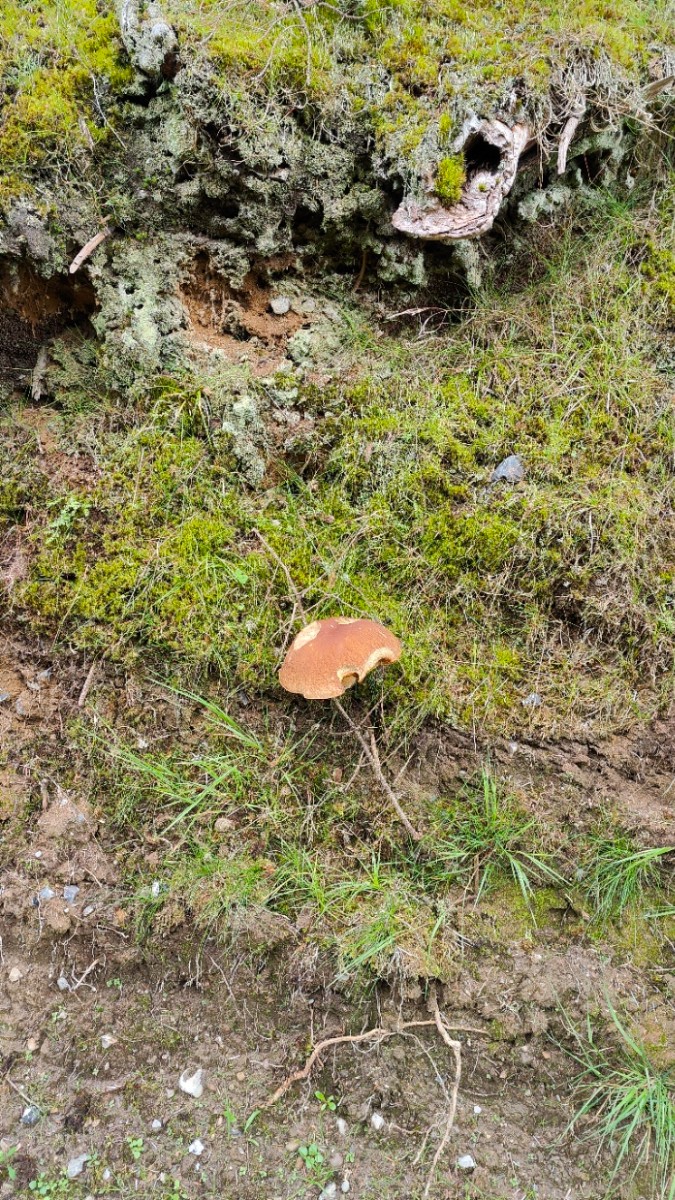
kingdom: Fungi
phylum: Basidiomycota
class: Agaricomycetes
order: Boletales
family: Boletaceae
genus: Boletus
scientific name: Boletus edulis
